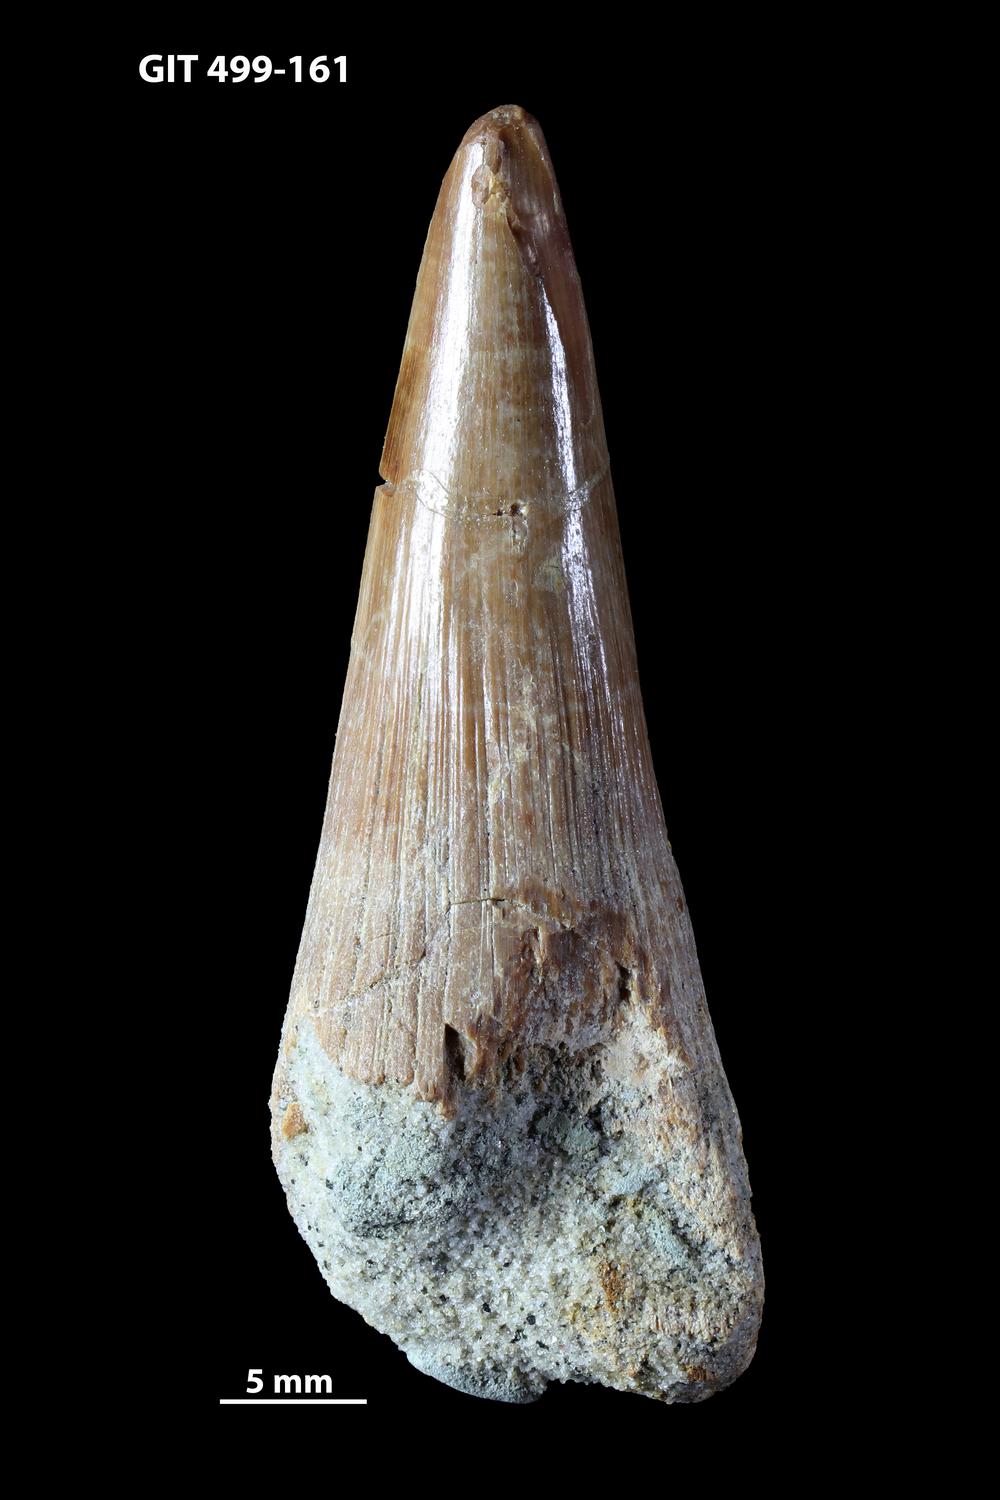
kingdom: Animalia
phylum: Chordata
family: Holoptychiidae
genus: Glyptolepis
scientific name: Glyptolepis
